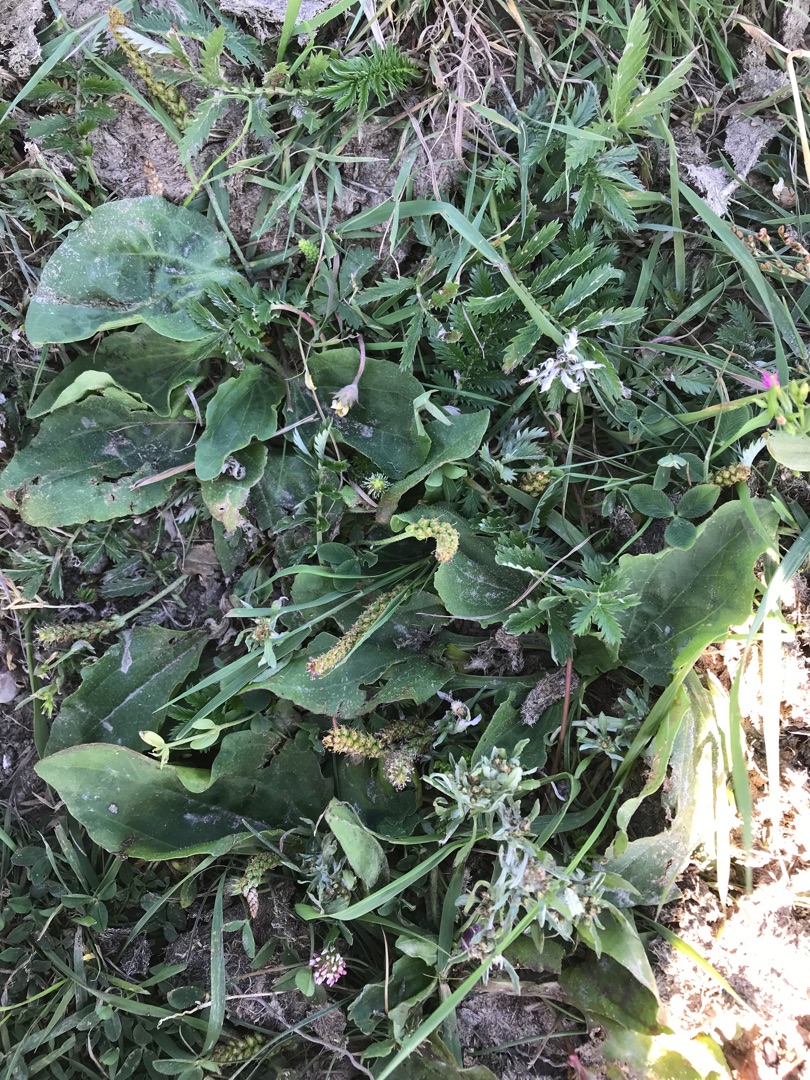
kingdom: Plantae
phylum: Tracheophyta
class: Magnoliopsida
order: Lamiales
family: Plantaginaceae
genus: Plantago
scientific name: Plantago uliginosa
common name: Ager-vejbred
